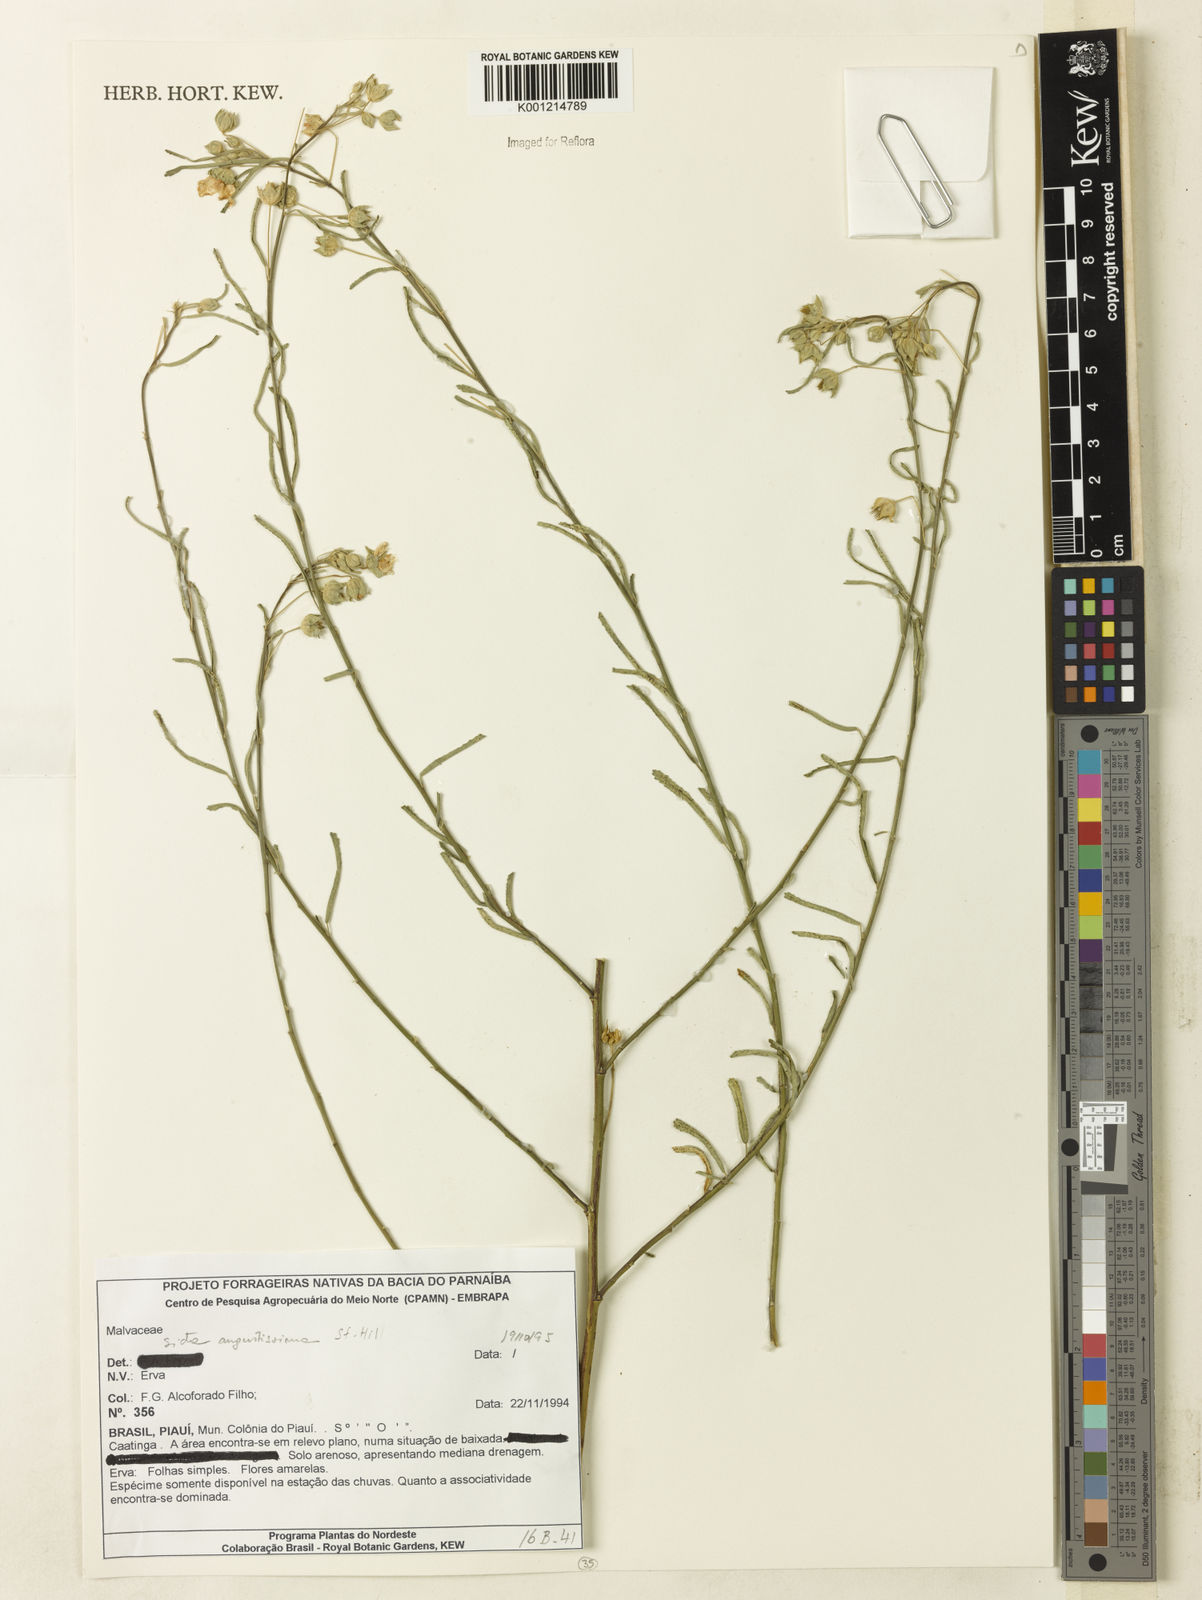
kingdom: Plantae
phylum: Tracheophyta
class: Magnoliopsida
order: Malvales
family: Malvaceae
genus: Sida
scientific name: Sida angustissima
